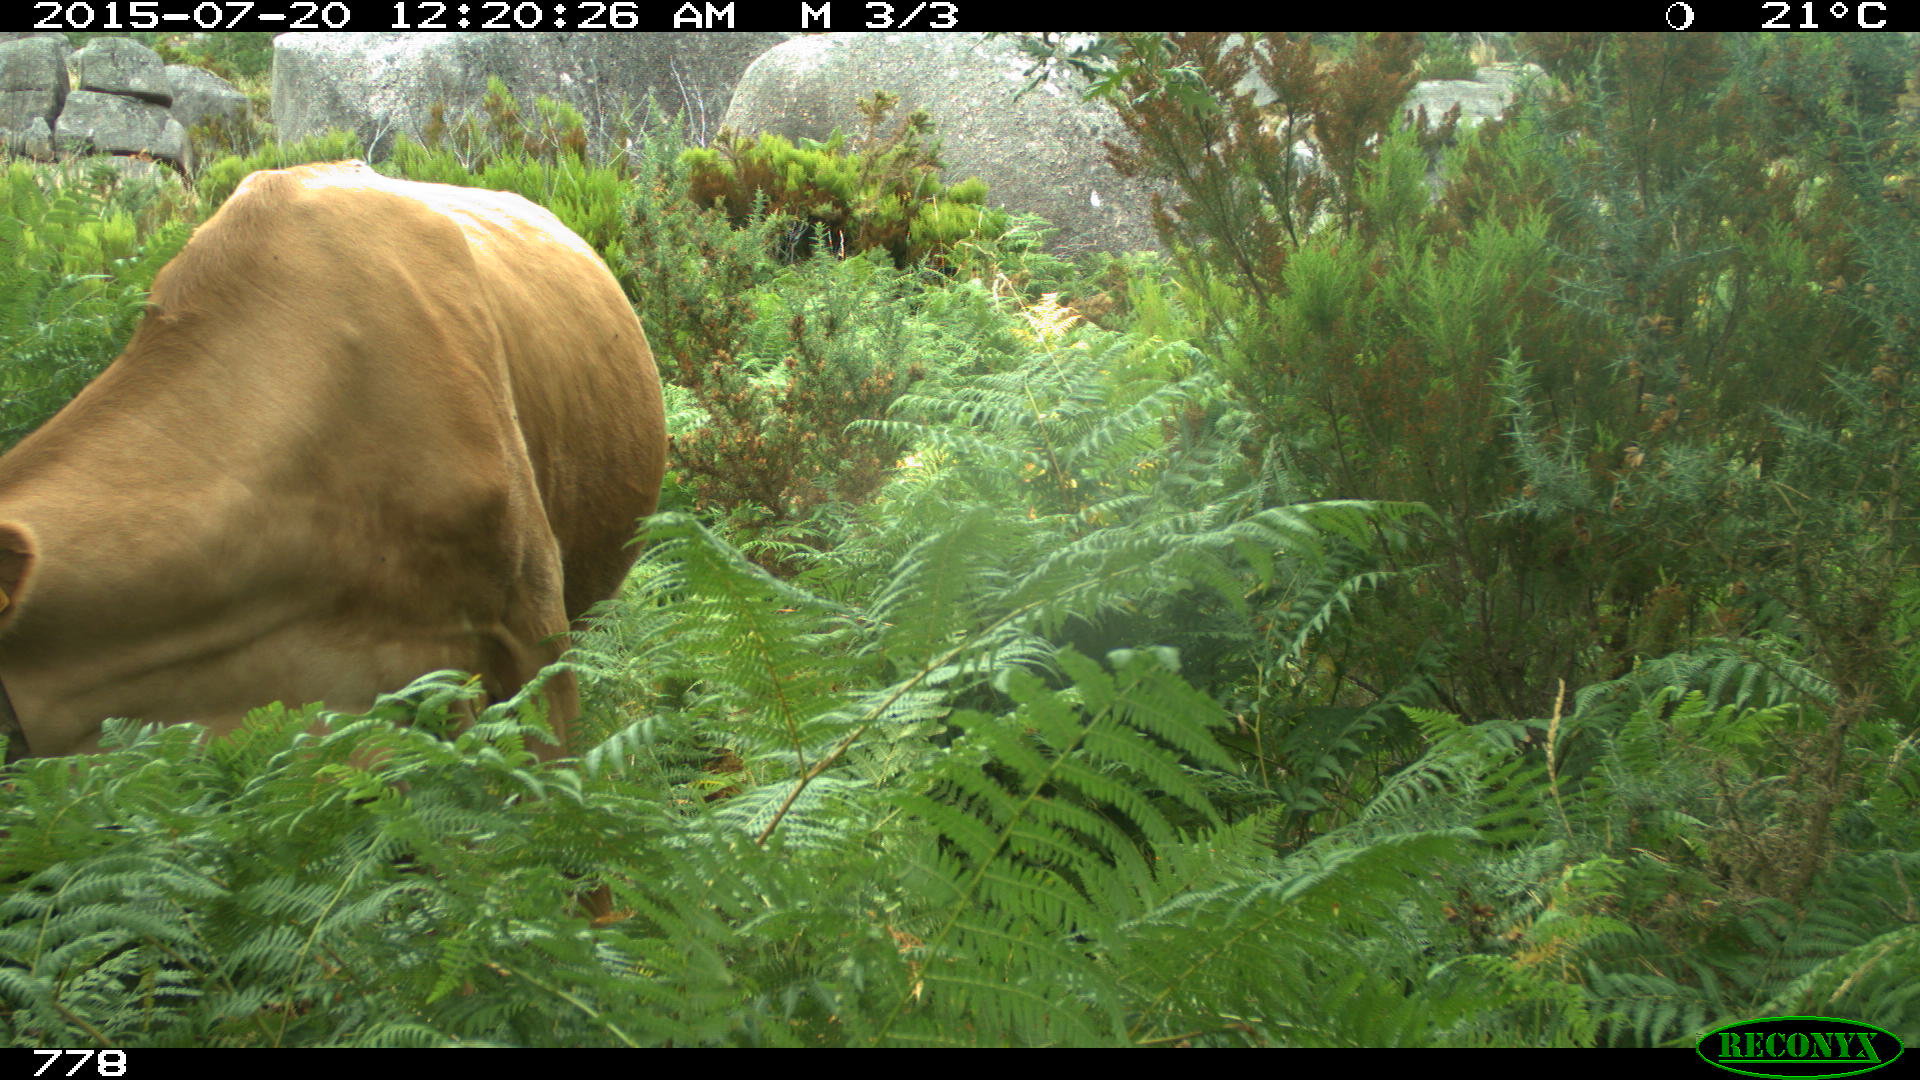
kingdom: Animalia
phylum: Chordata
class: Mammalia
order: Artiodactyla
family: Bovidae
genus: Bos
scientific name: Bos taurus
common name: Domesticated cattle
